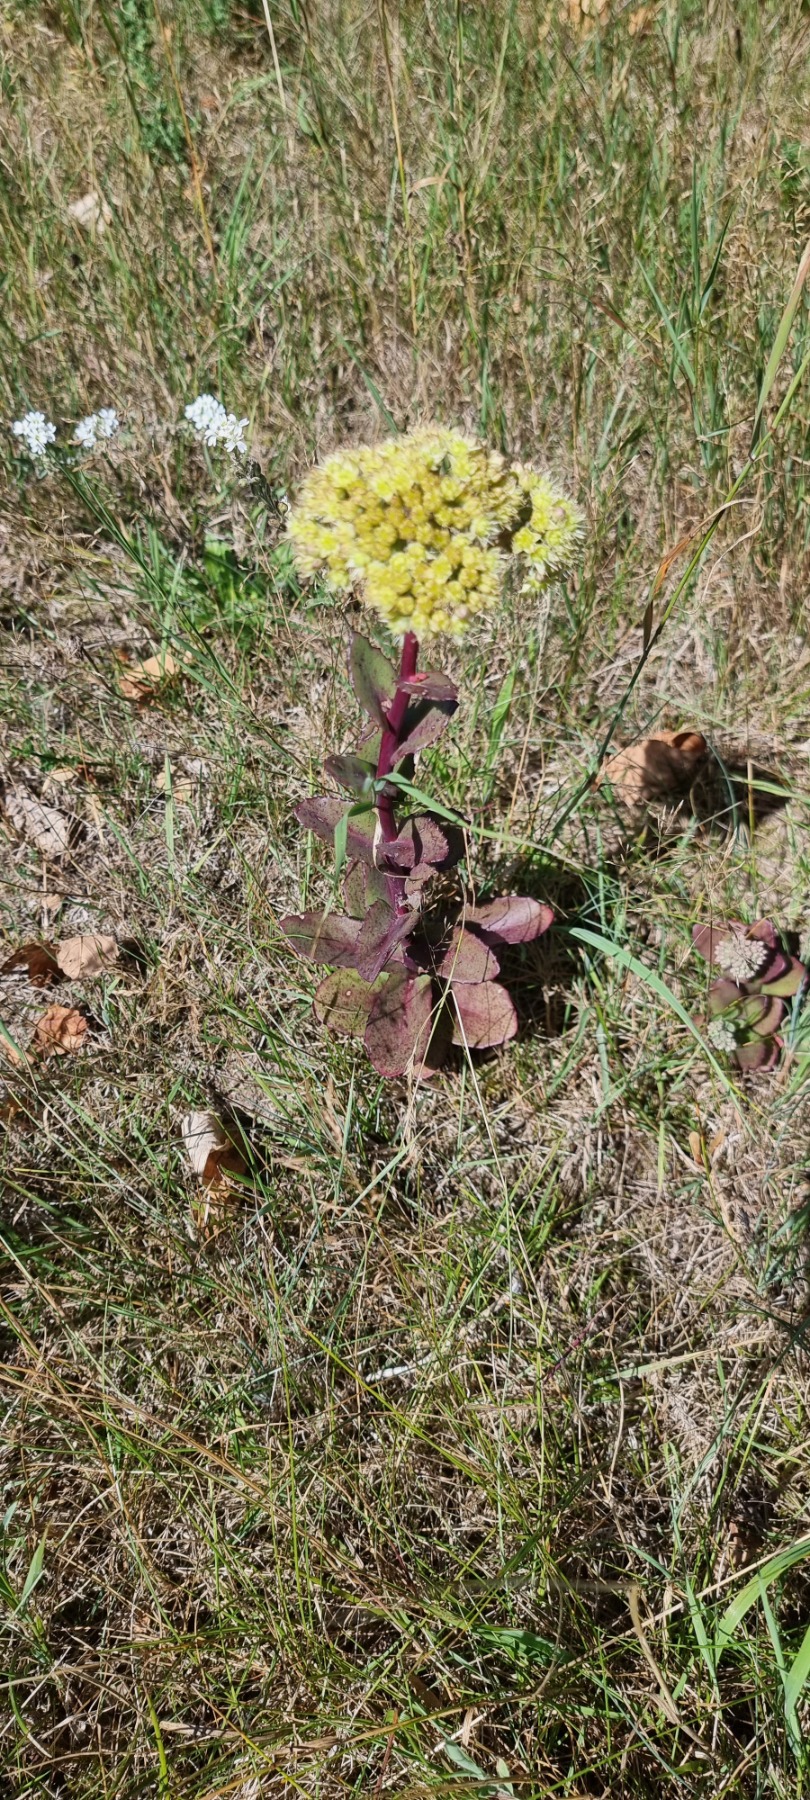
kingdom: Plantae
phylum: Tracheophyta
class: Magnoliopsida
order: Saxifragales
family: Crassulaceae
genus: Hylotelephium
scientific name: Hylotelephium maximum
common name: Almindelig sankthansurt
